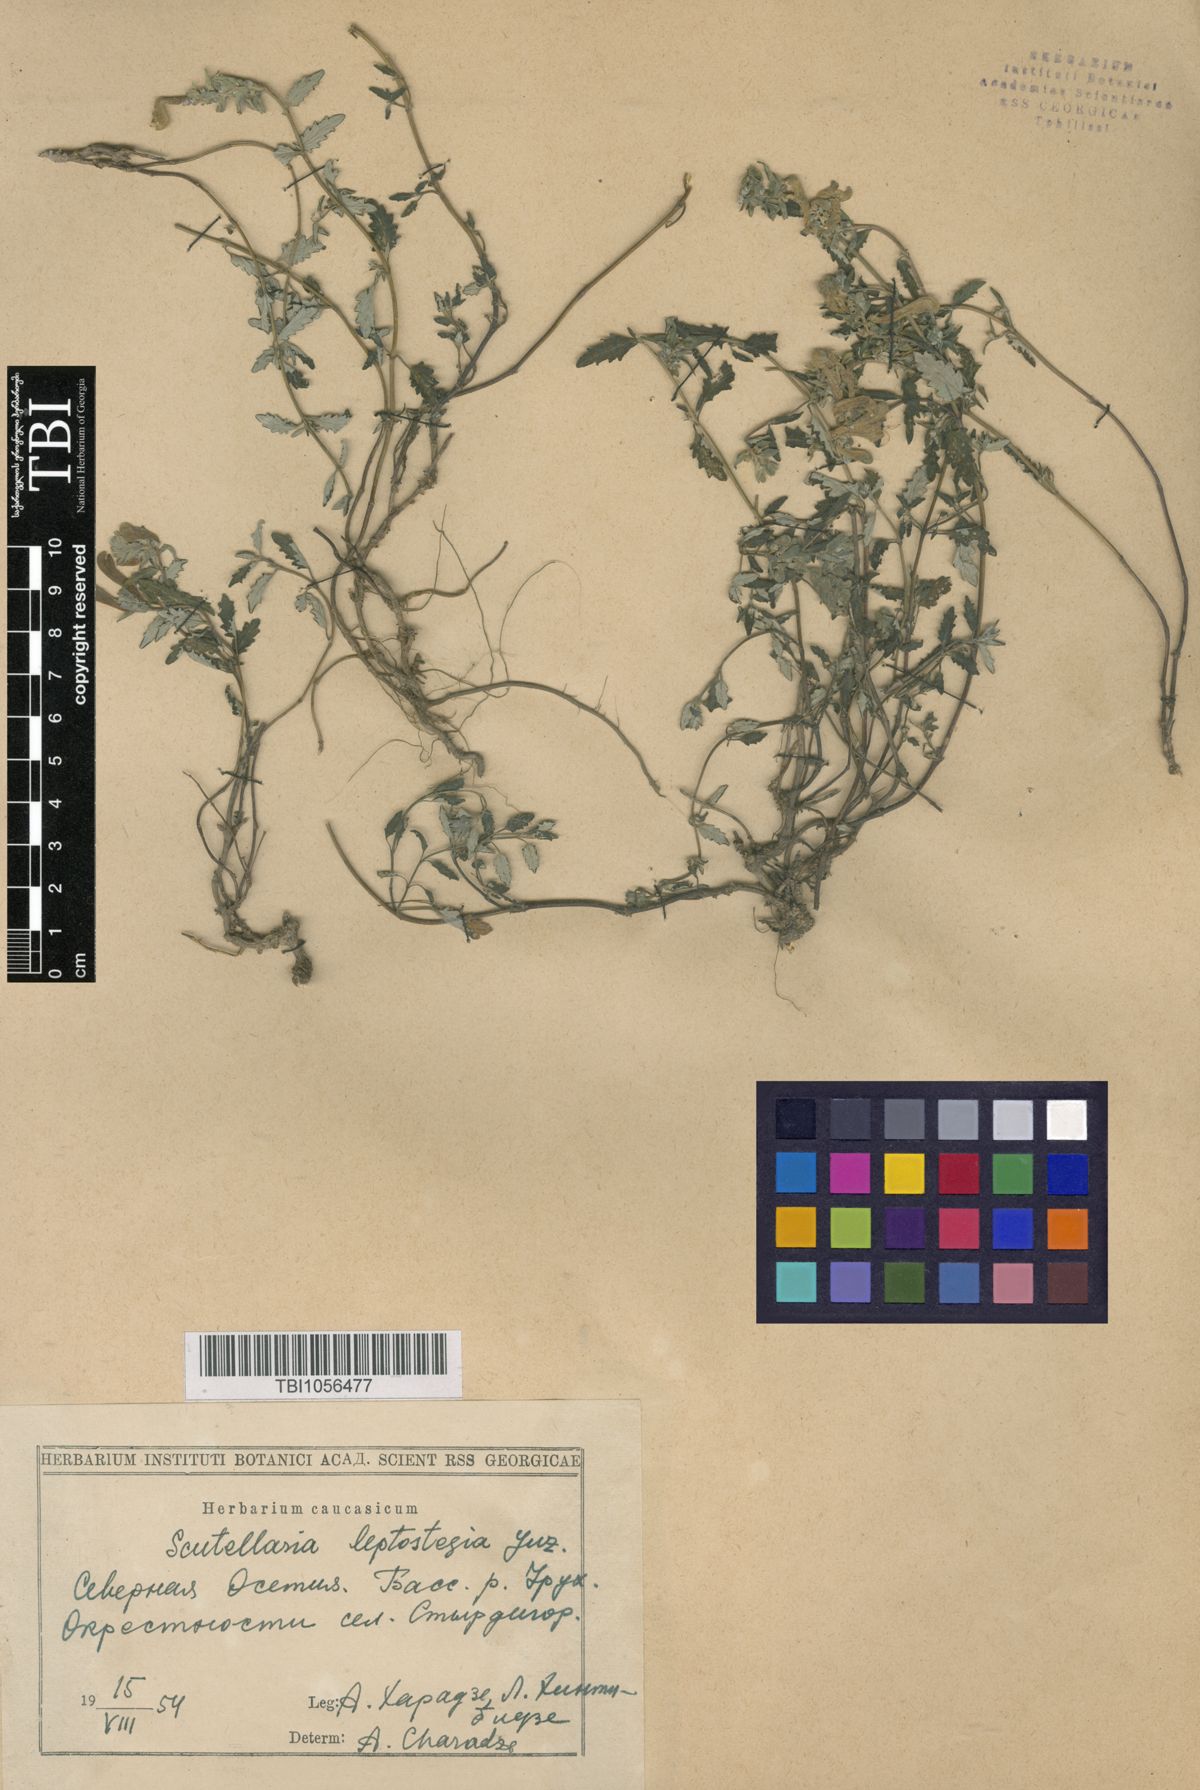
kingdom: Plantae
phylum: Tracheophyta
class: Magnoliopsida
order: Lamiales
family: Lamiaceae
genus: Scutellaria
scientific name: Scutellaria leptostegia
